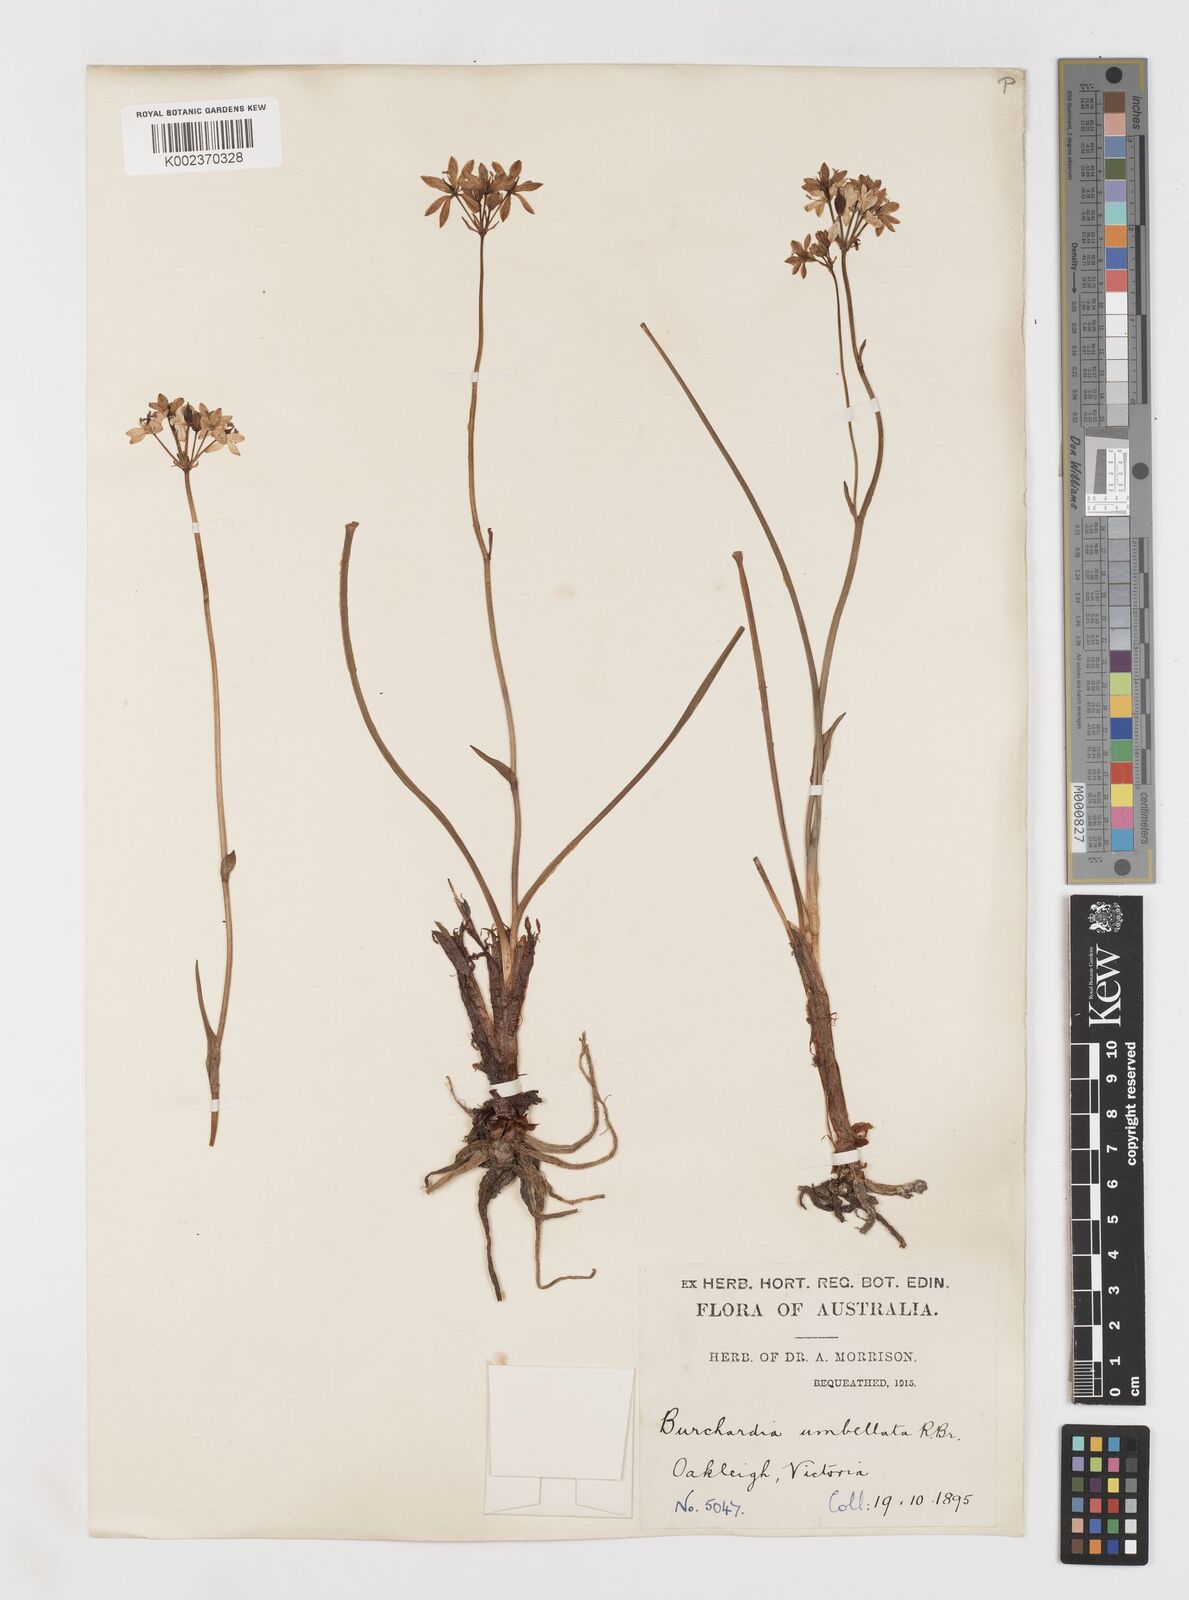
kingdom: Plantae
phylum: Tracheophyta
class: Liliopsida
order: Liliales
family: Colchicaceae
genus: Burchardia
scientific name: Burchardia umbellata
